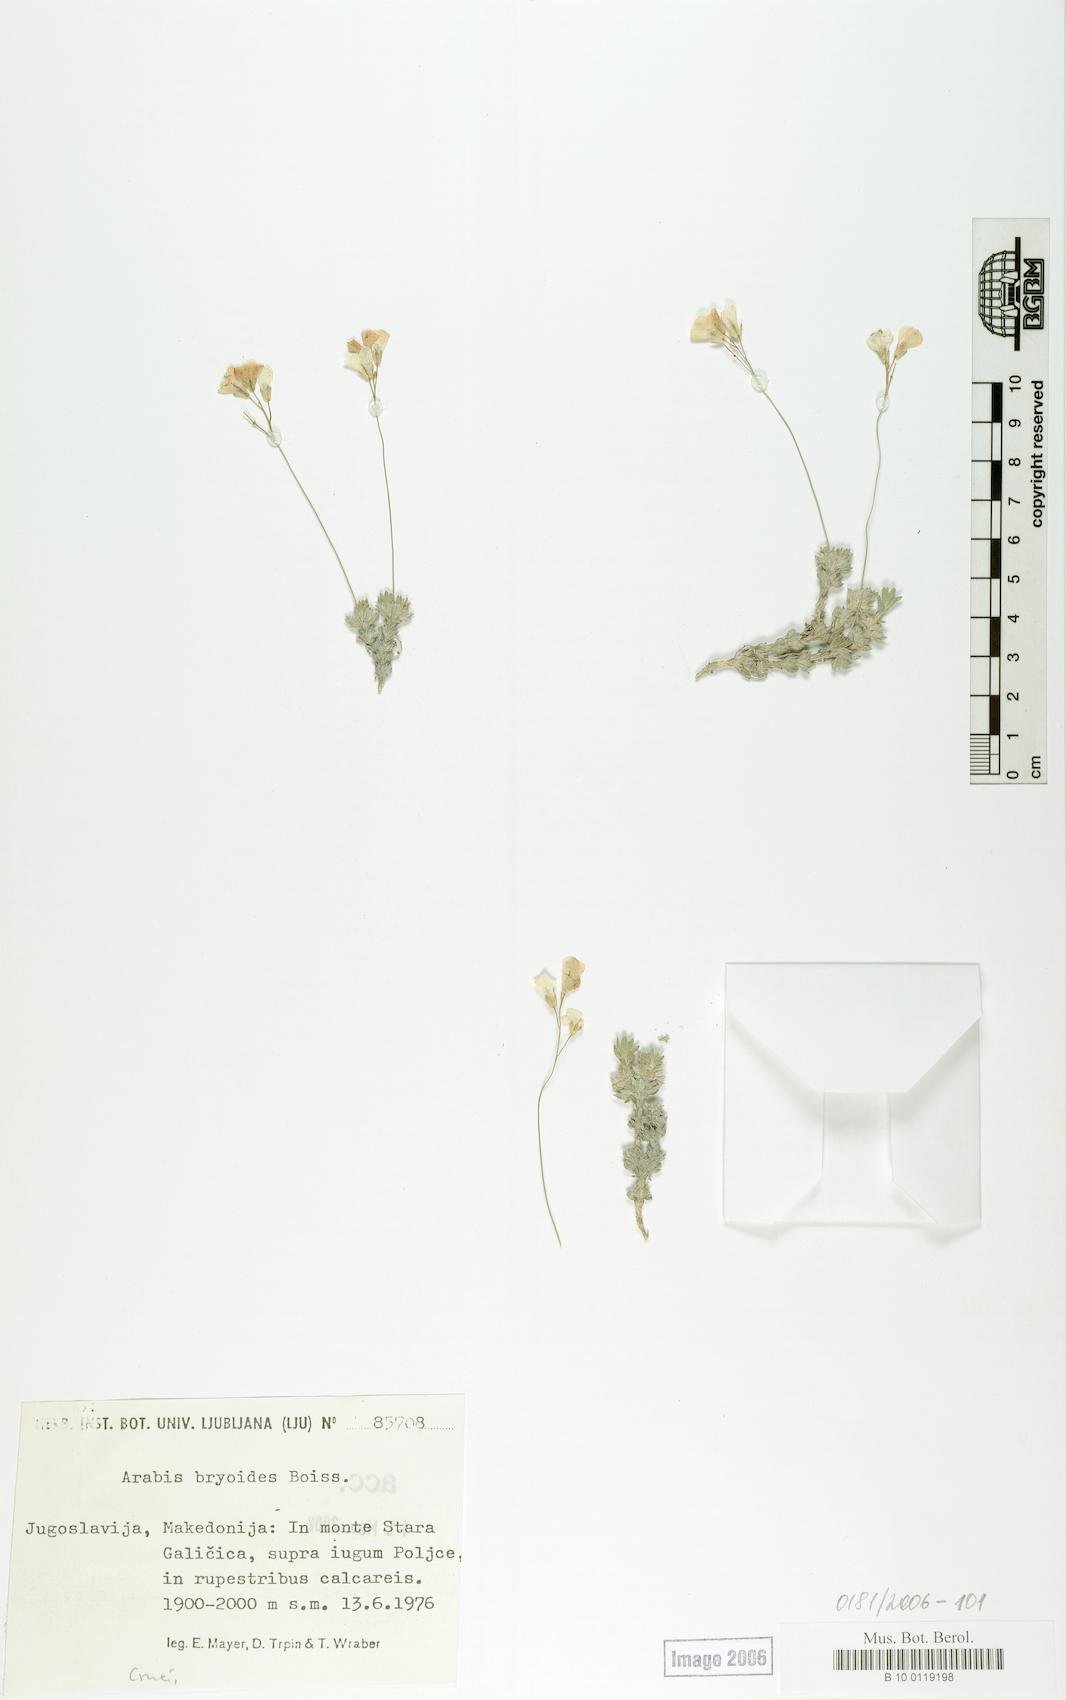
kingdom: Plantae
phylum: Tracheophyta
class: Magnoliopsida
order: Brassicales
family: Brassicaceae
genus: Arabis
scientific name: Arabis bryoides
